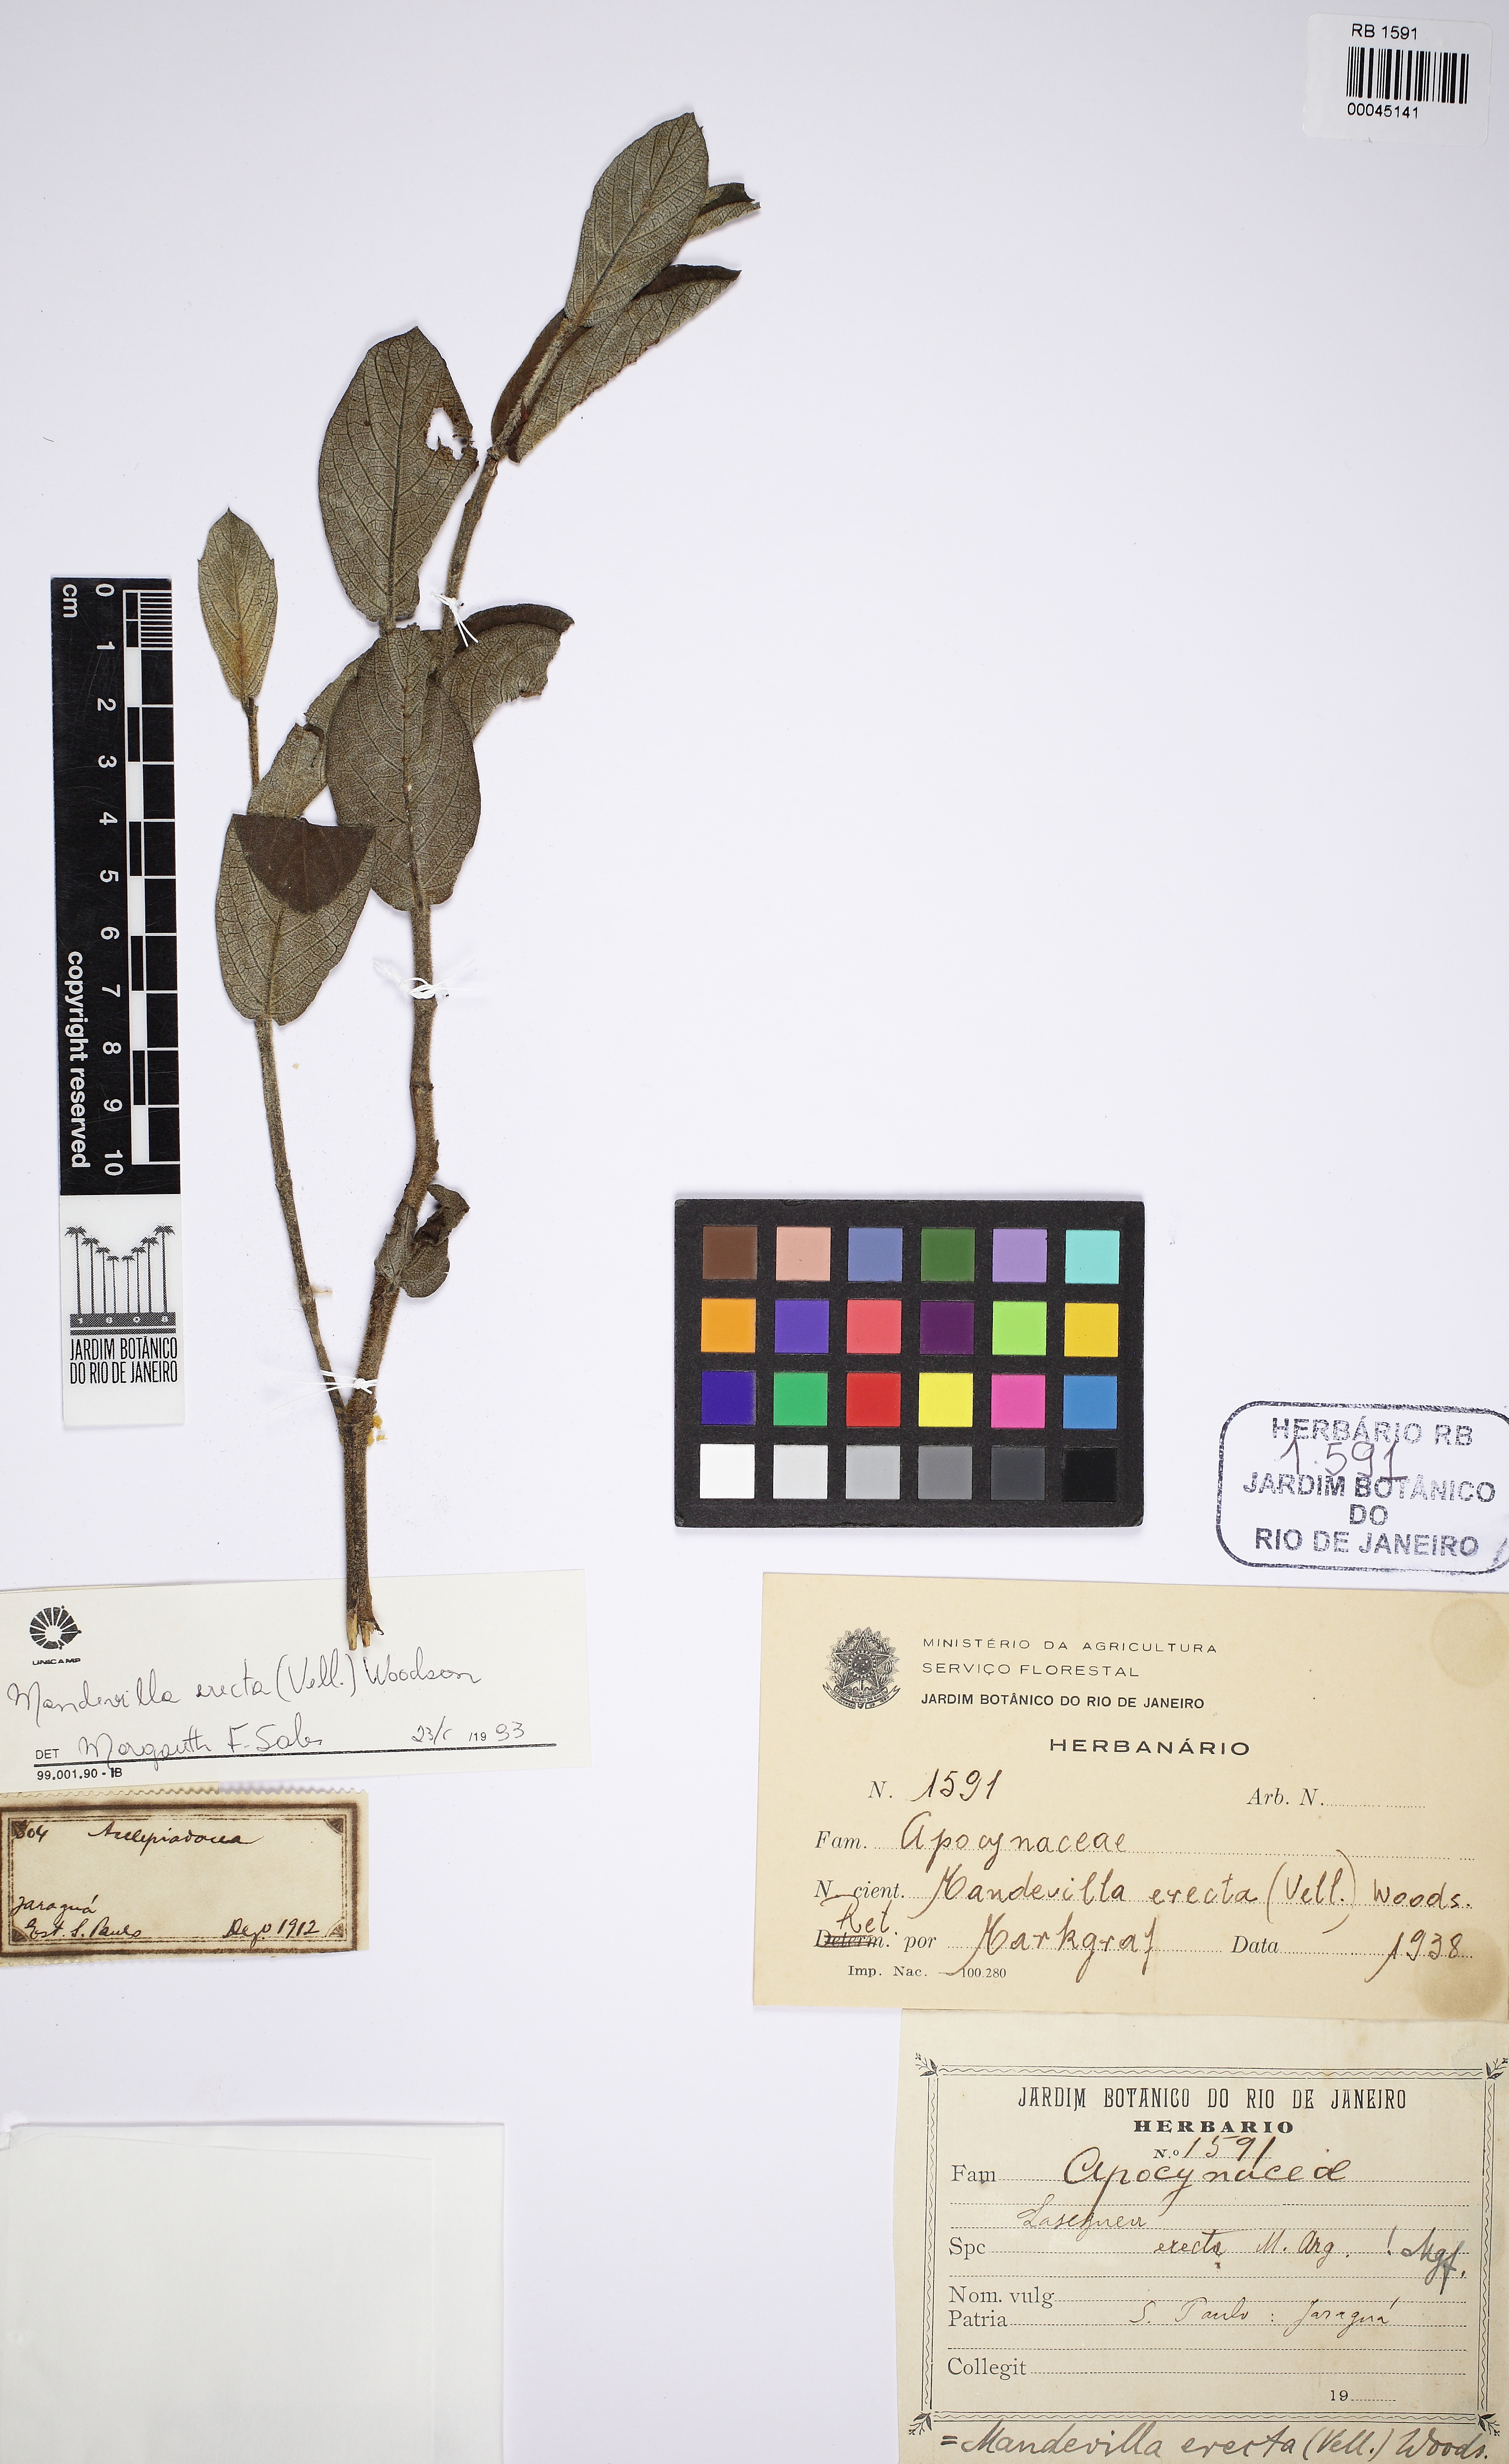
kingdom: Plantae
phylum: Tracheophyta
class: Magnoliopsida
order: Gentianales
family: Apocynaceae
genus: Mandevilla
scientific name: Mandevilla emarginata
